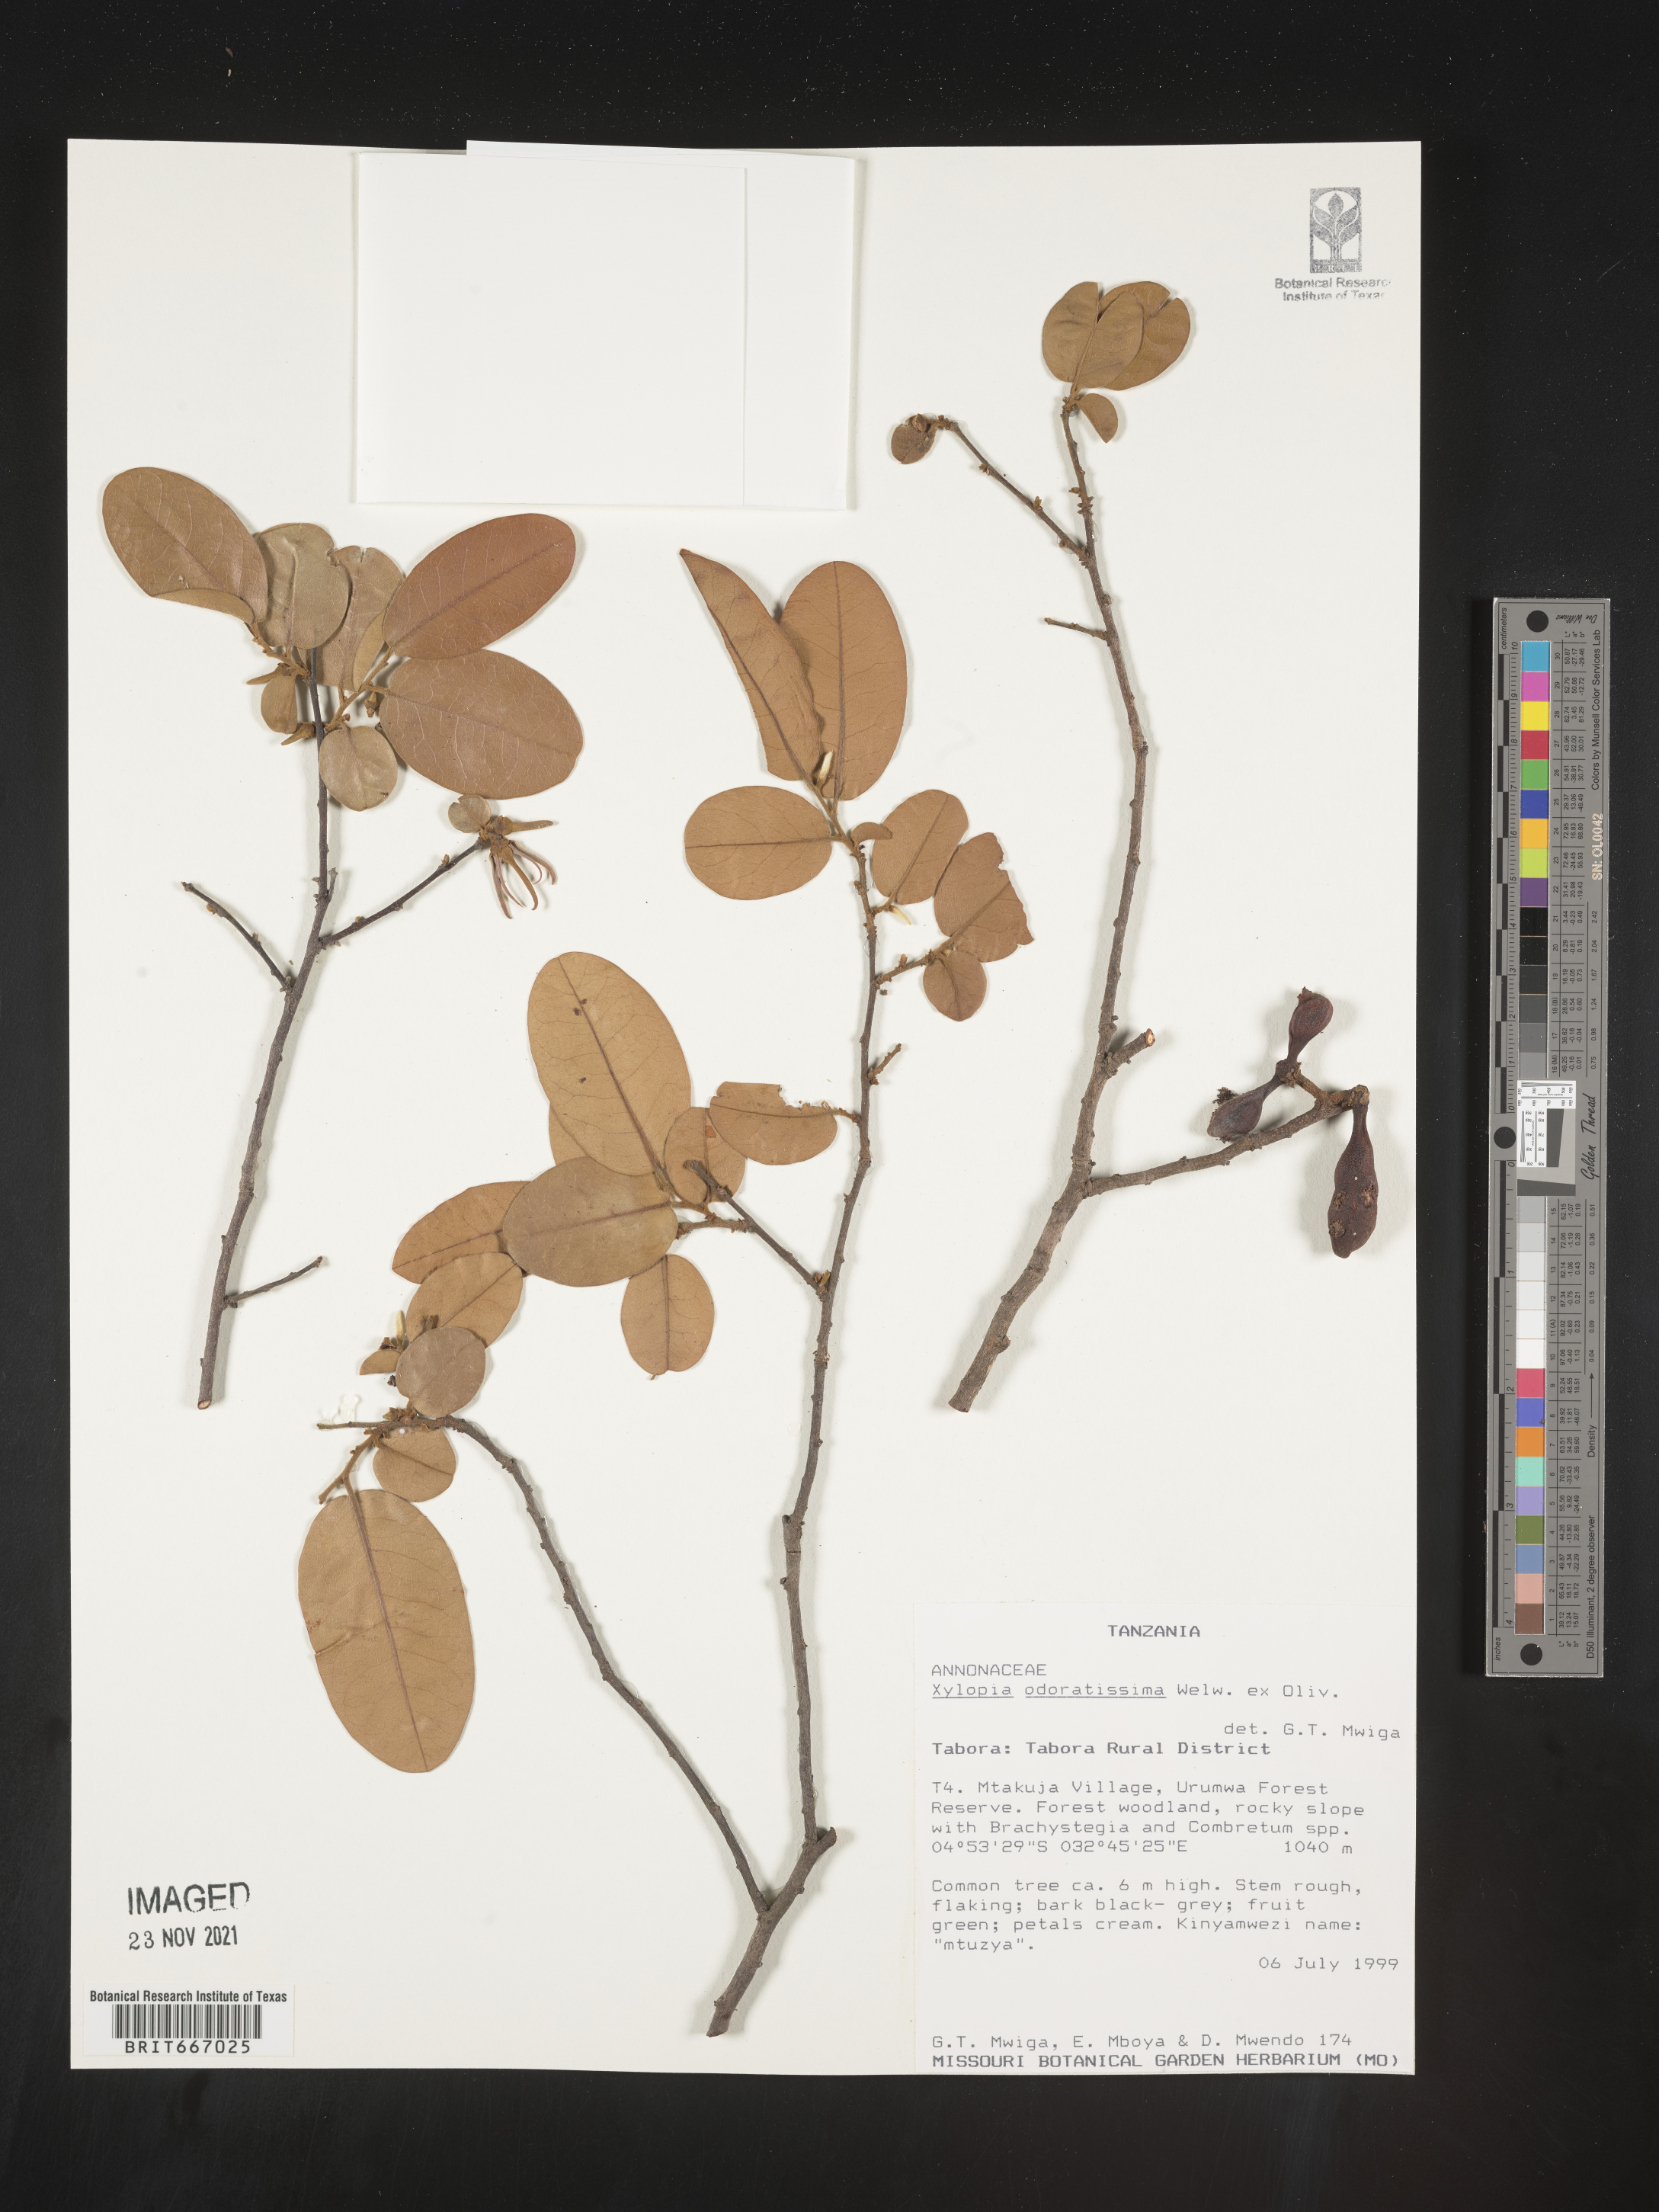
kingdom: Plantae
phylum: Tracheophyta
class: Magnoliopsida
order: Magnoliales
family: Annonaceae
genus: Xylopia
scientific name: Xylopia
